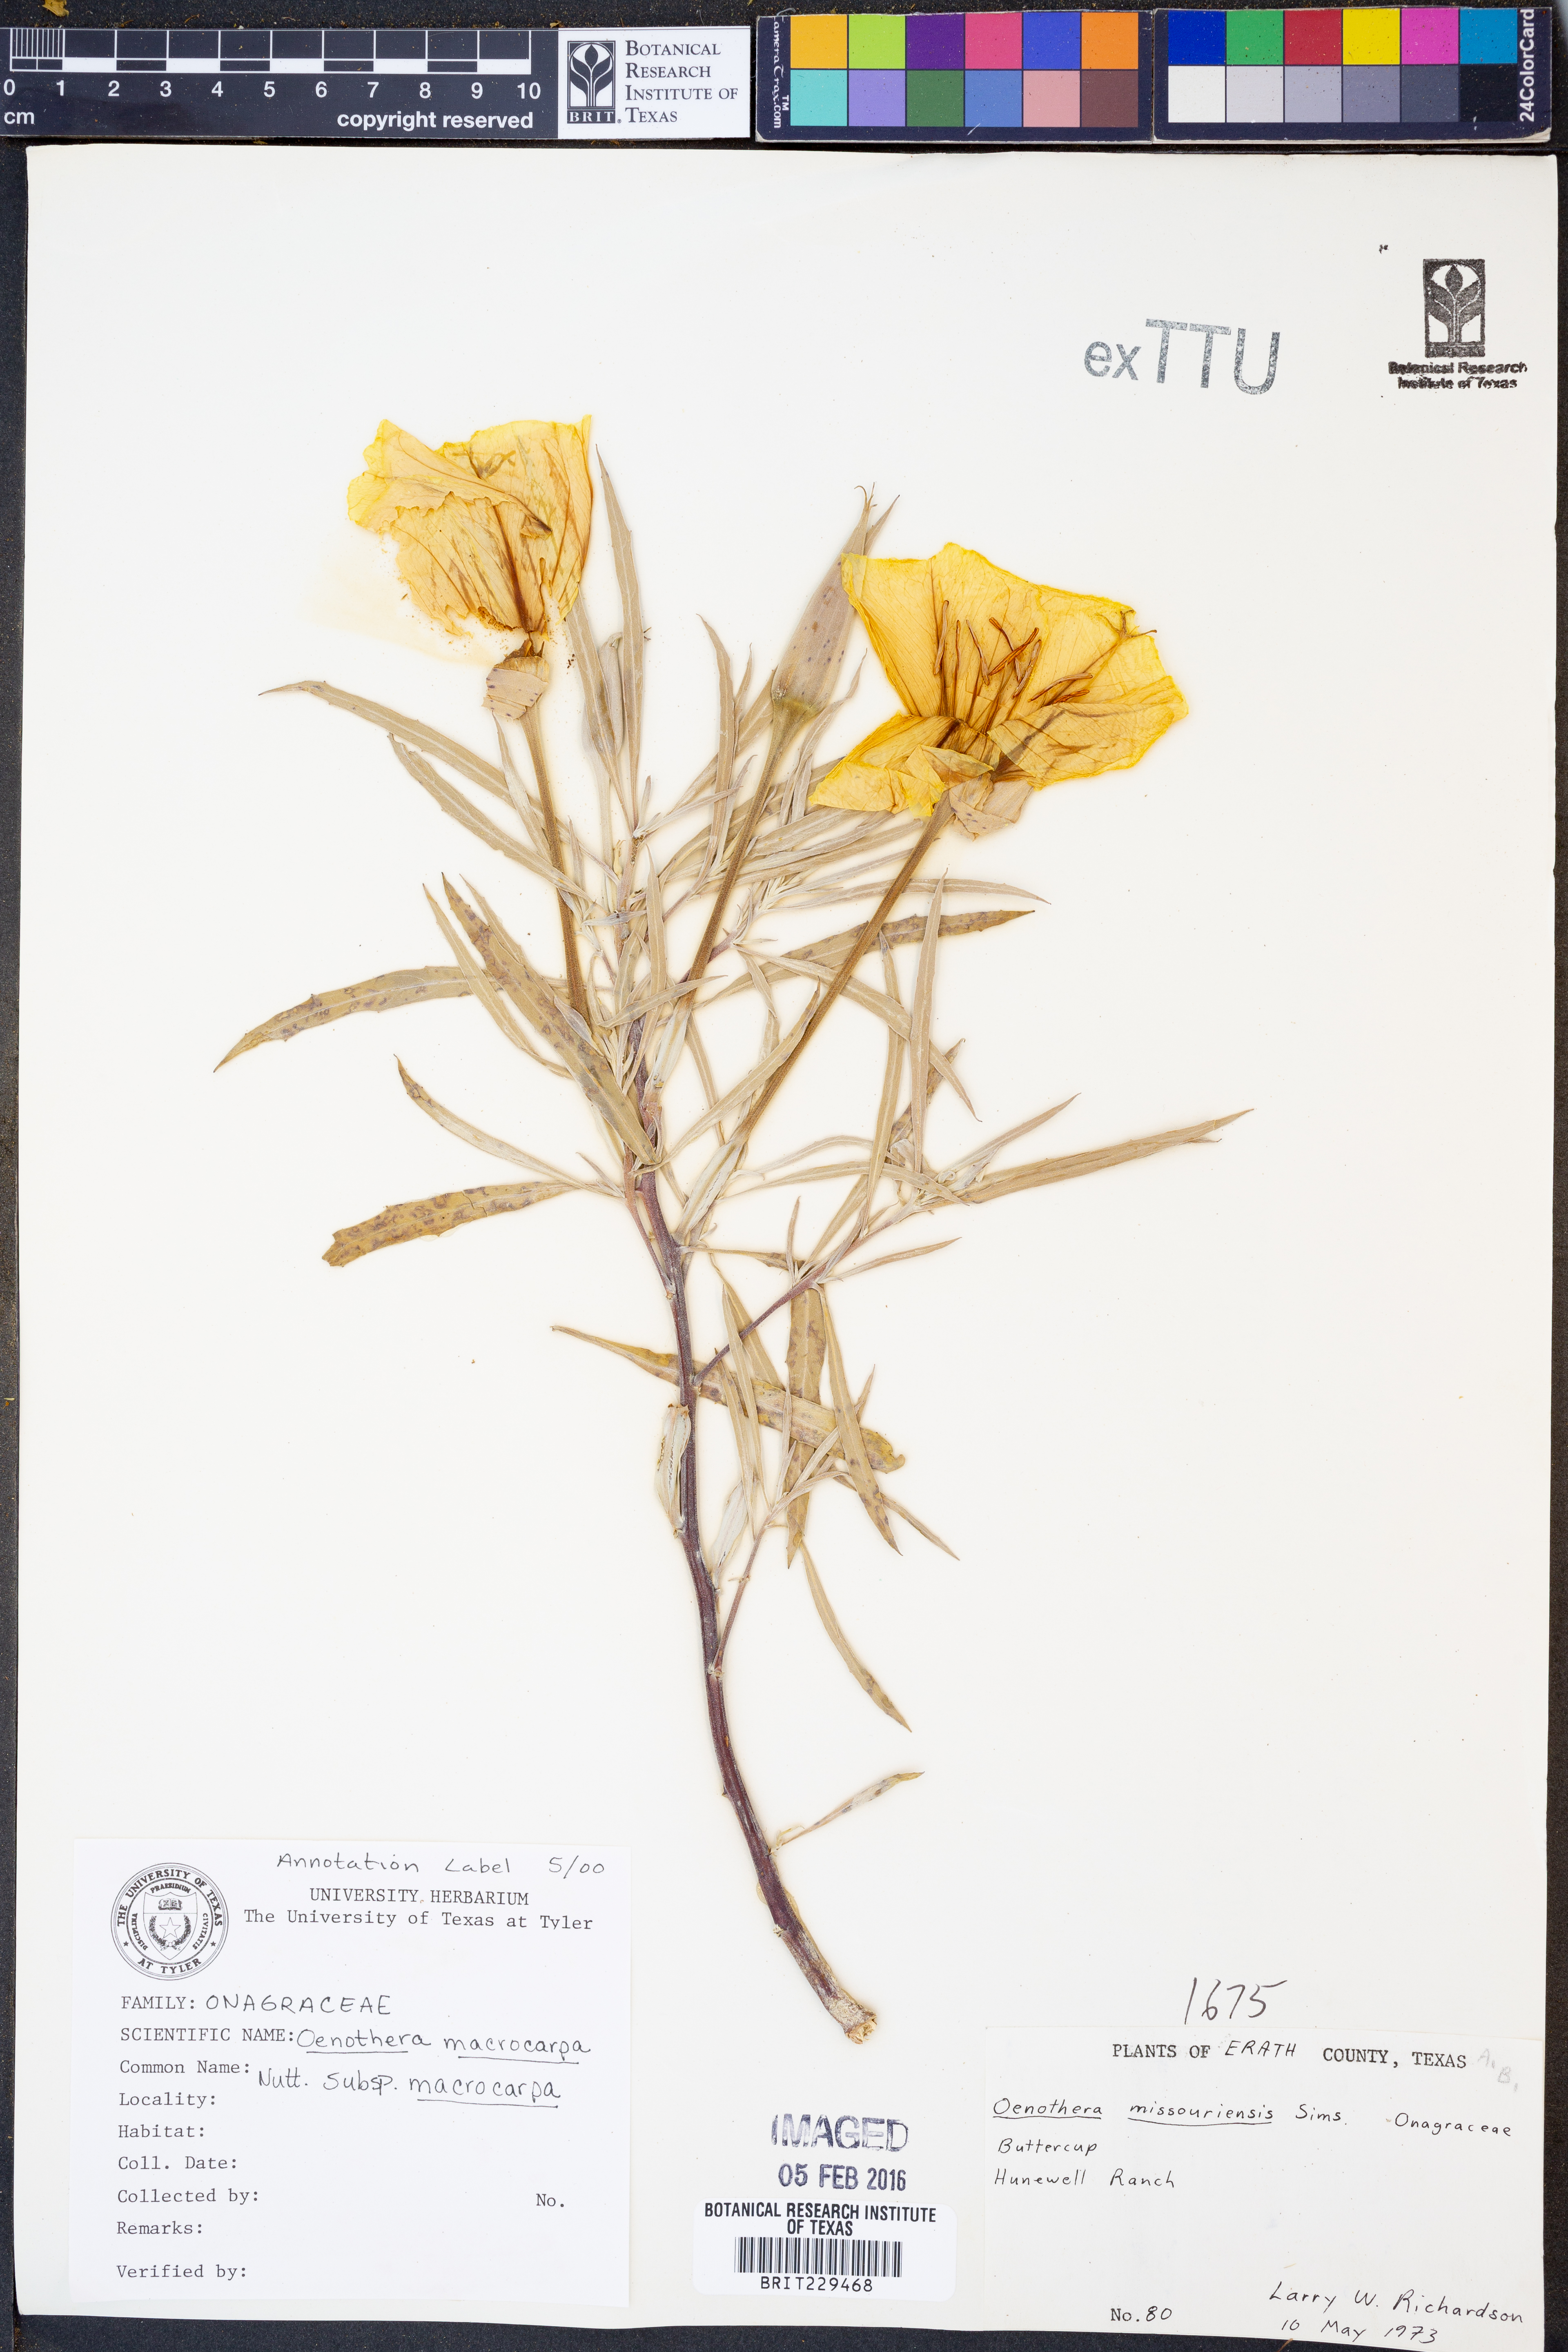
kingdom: Plantae
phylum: Tracheophyta
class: Magnoliopsida
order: Myrtales
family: Onagraceae
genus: Oenothera
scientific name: Oenothera macrocarpa
